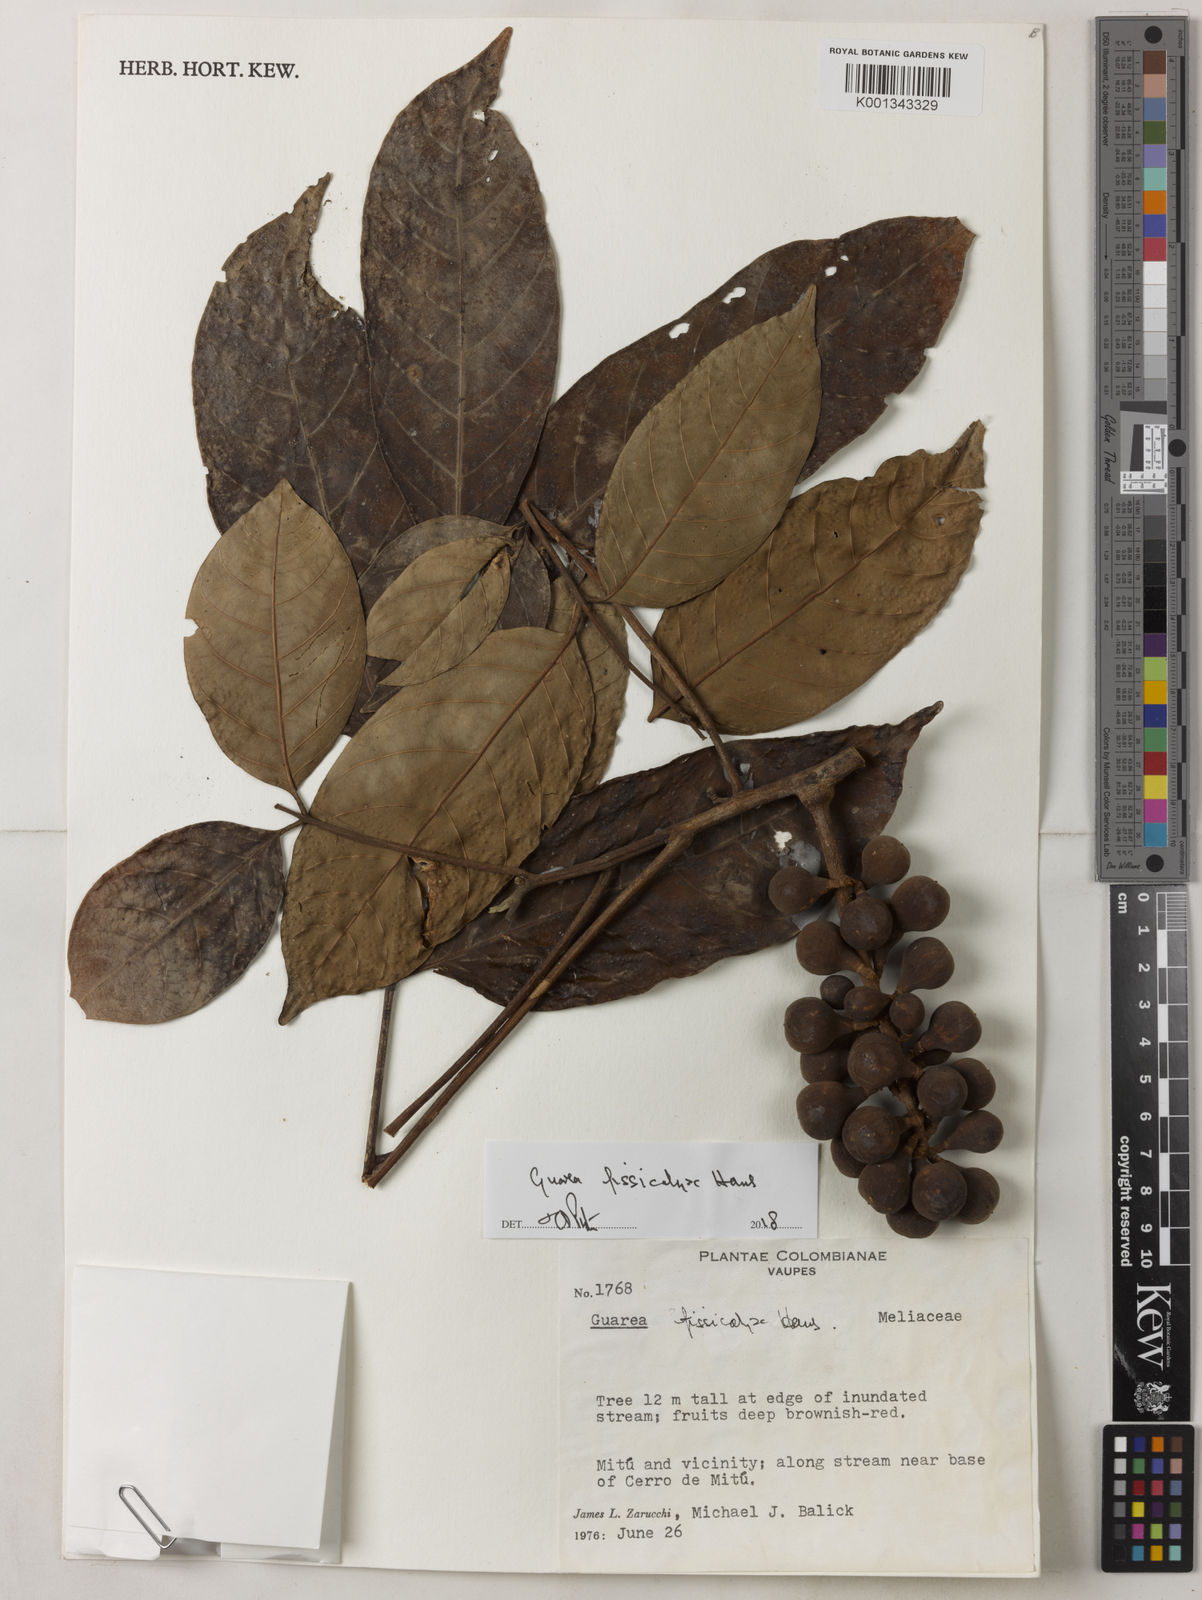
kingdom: Plantae
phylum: Tracheophyta
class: Magnoliopsida
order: Sapindales
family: Meliaceae
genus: Guarea
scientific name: Guarea gomma
